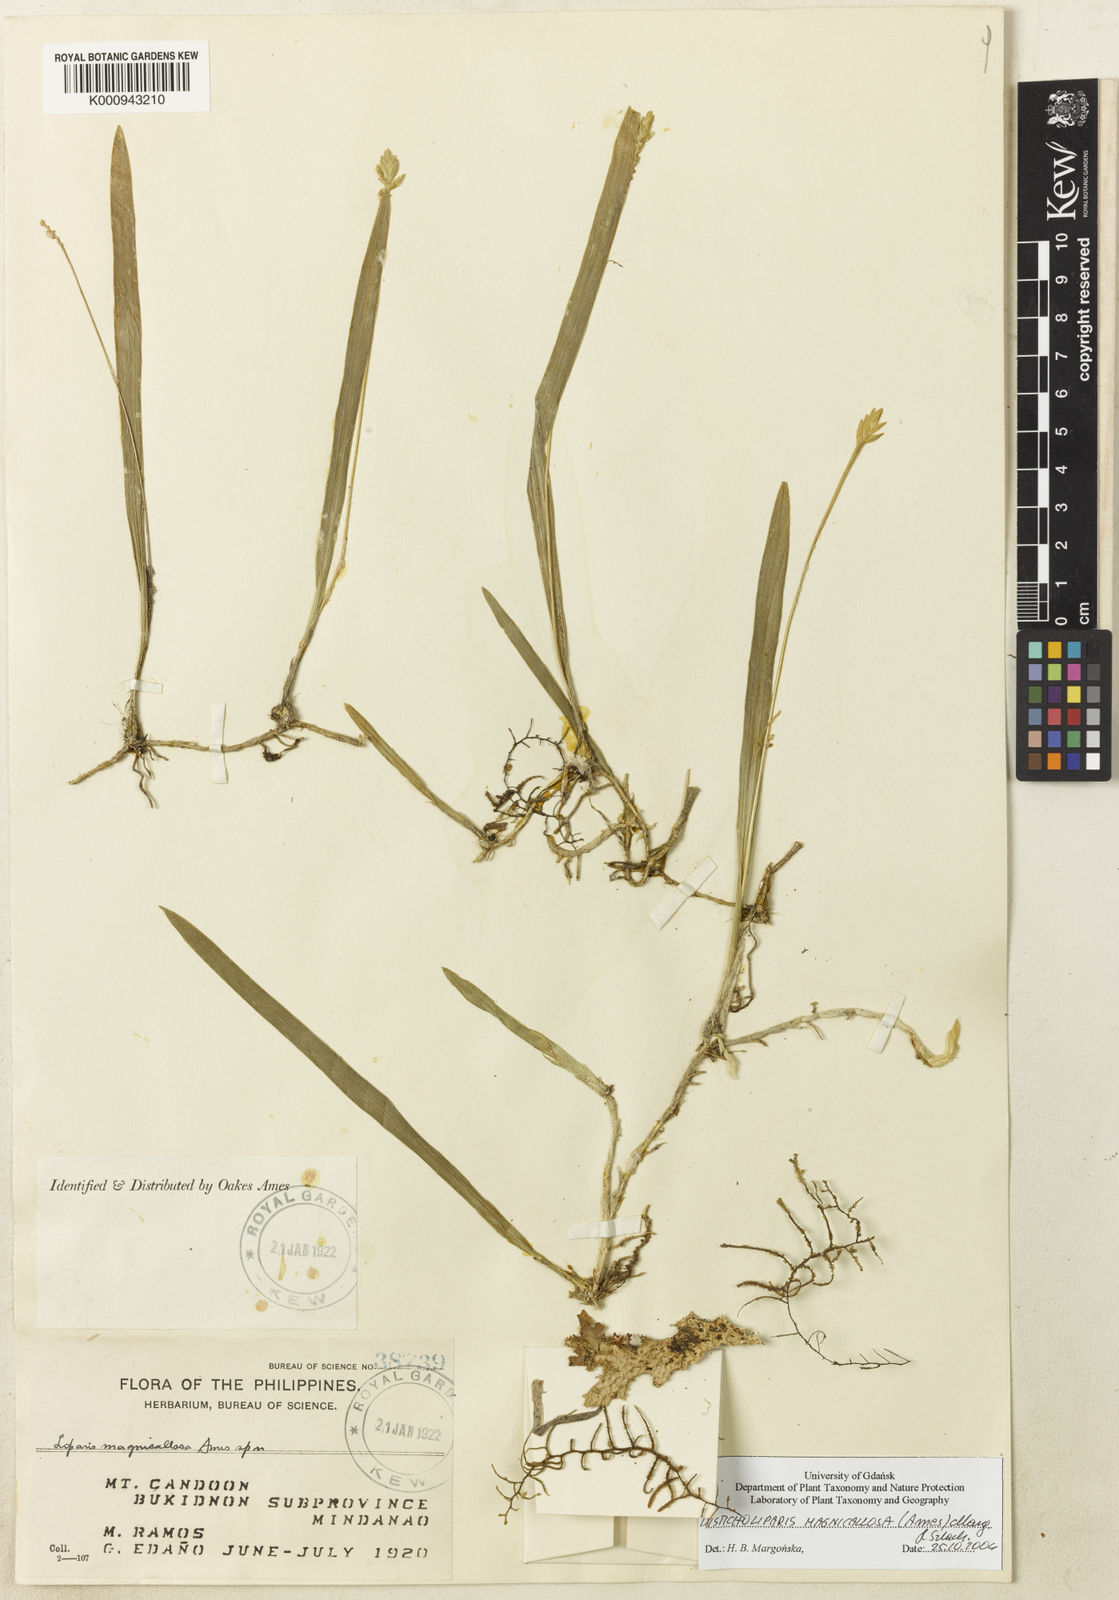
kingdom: Plantae
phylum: Tracheophyta
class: Liliopsida
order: Asparagales
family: Orchidaceae
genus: Stichorkis
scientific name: Stichorkis magnicallosa
